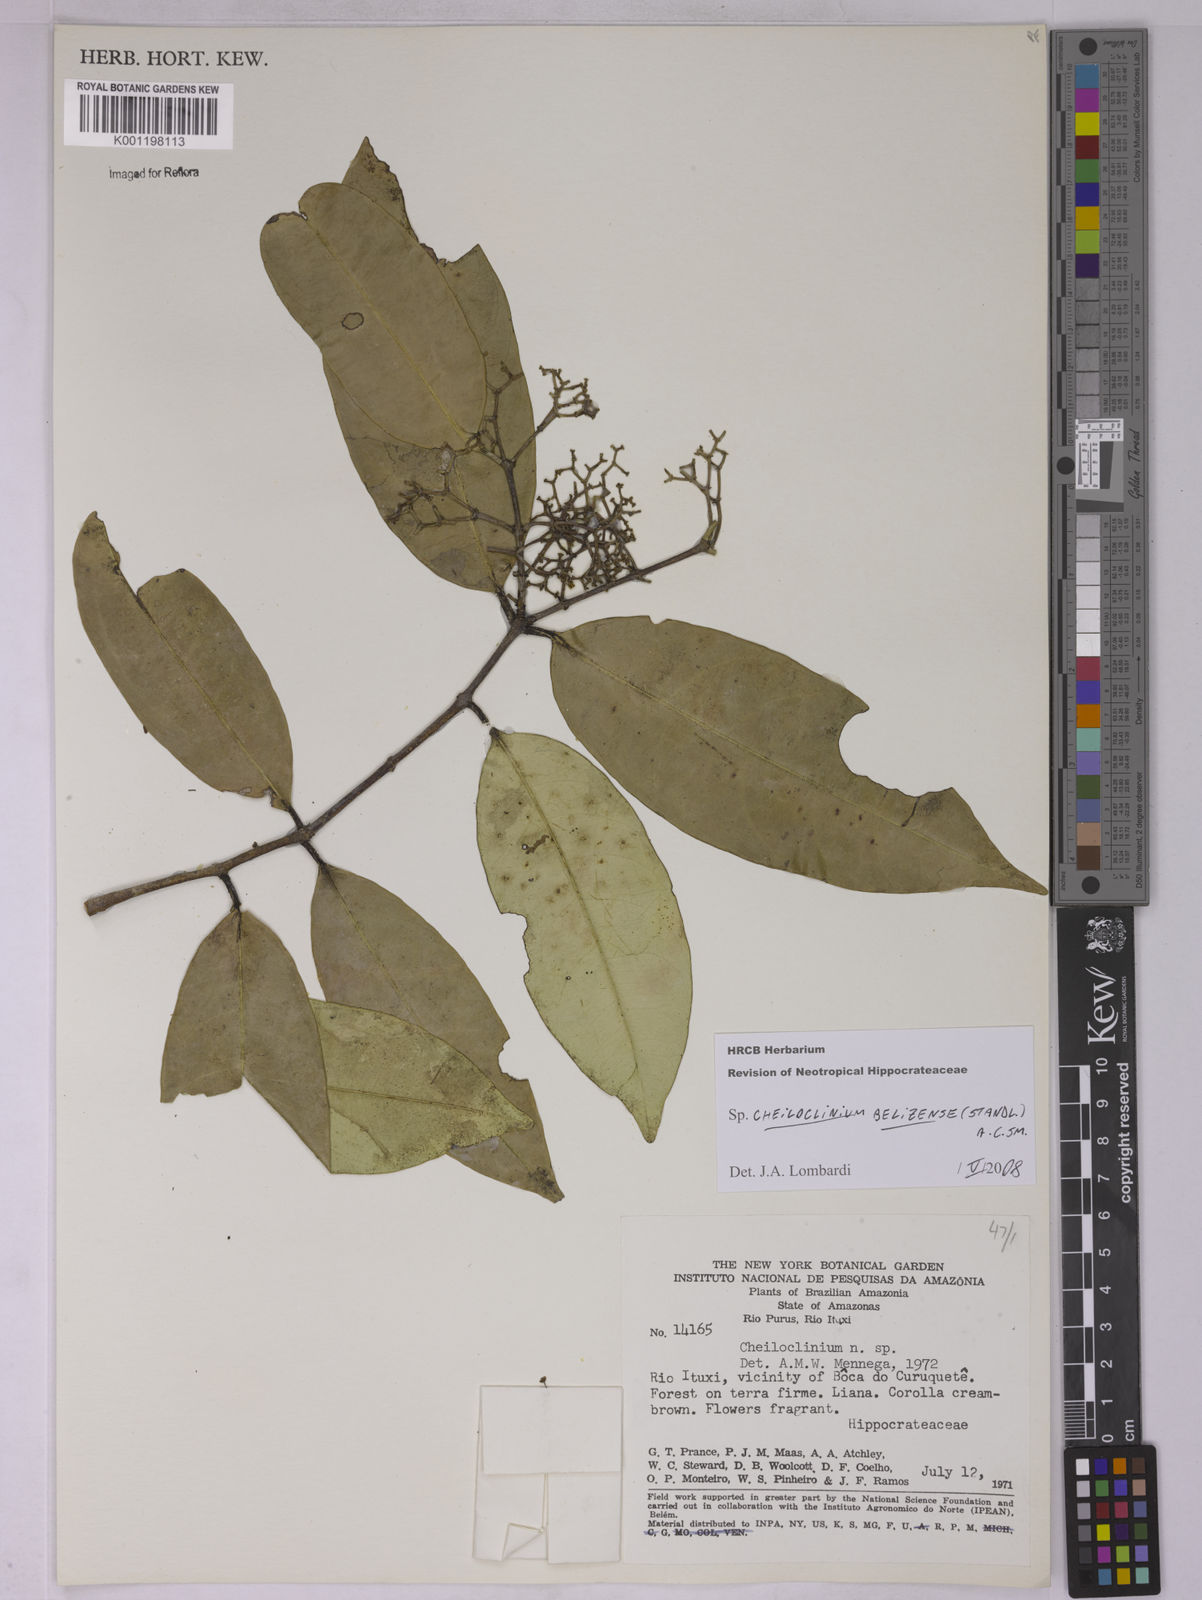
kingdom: Plantae
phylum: Tracheophyta
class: Magnoliopsida
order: Celastrales
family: Celastraceae
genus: Cheiloclinium
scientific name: Cheiloclinium
